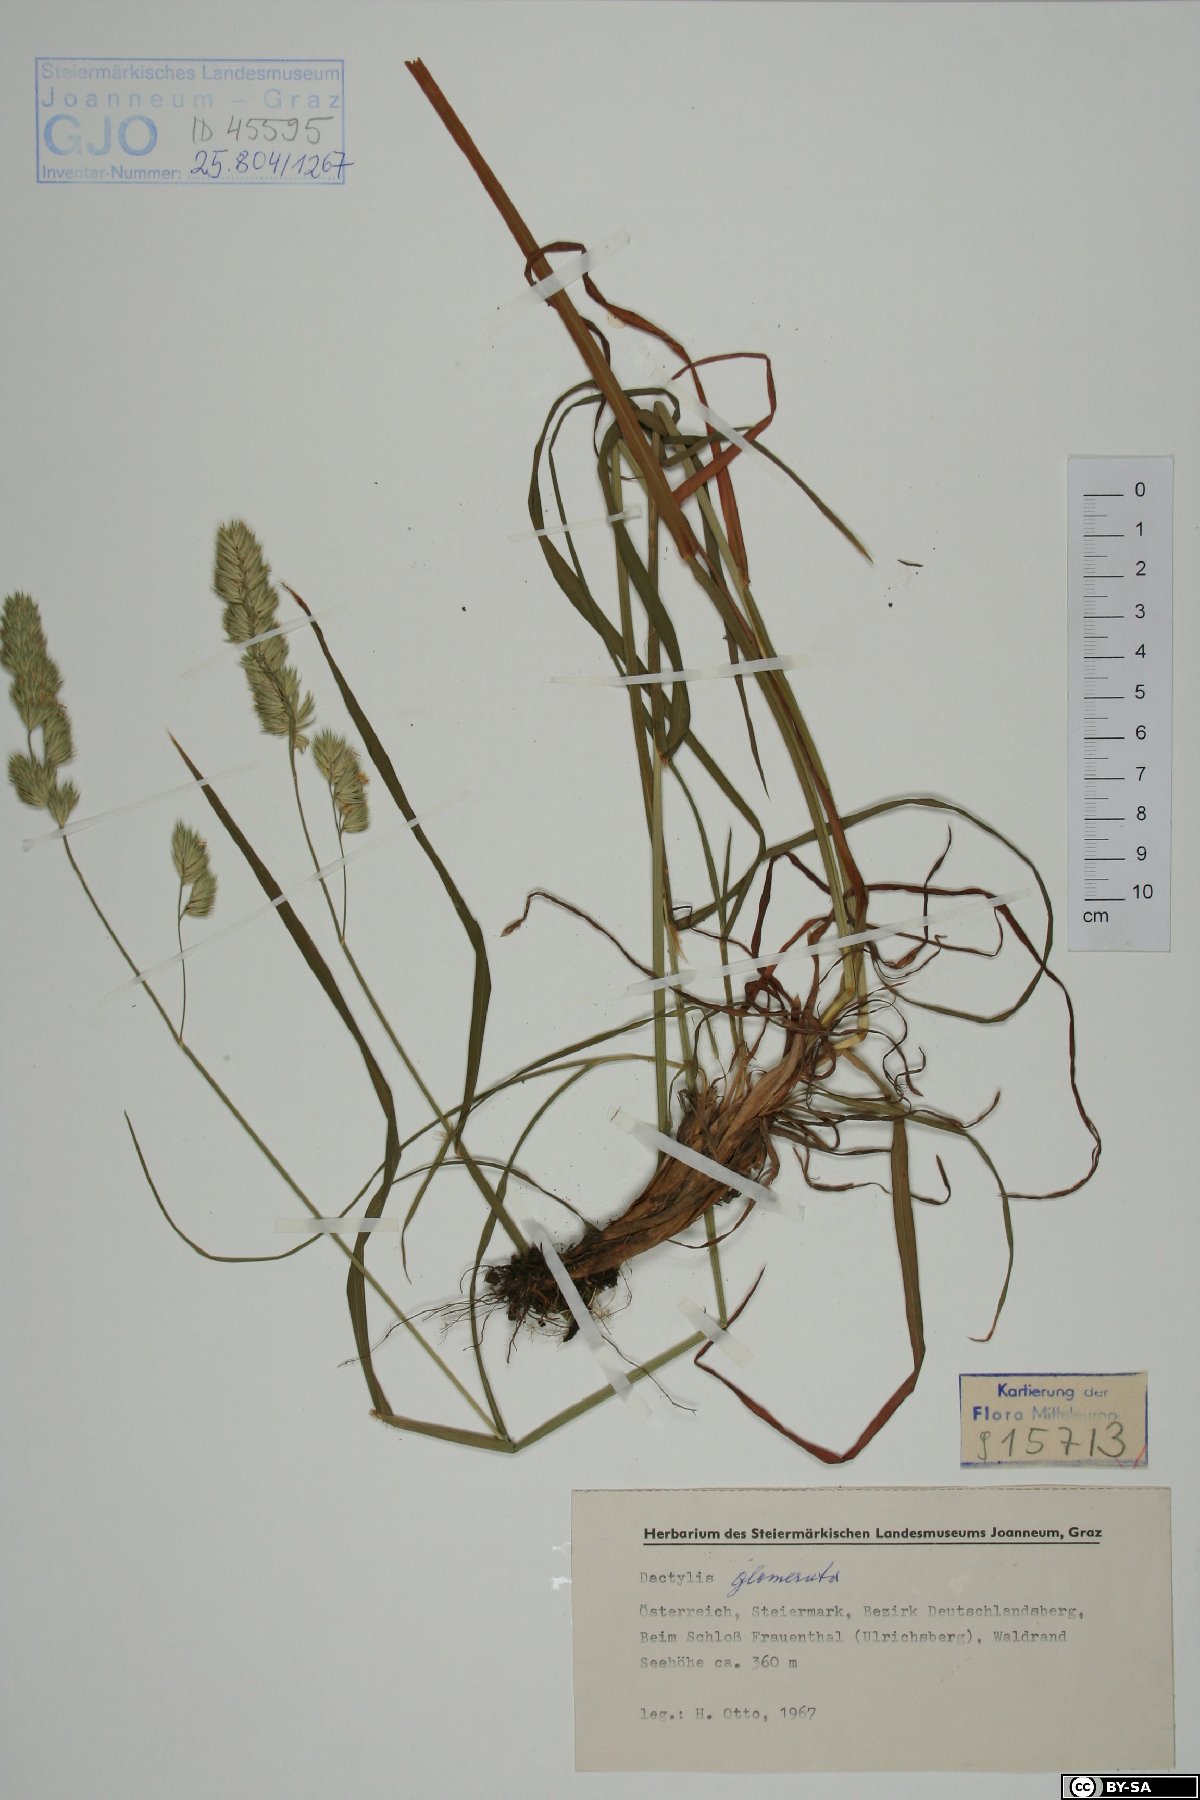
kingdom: Plantae
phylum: Tracheophyta
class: Liliopsida
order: Poales
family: Poaceae
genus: Dactylis
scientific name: Dactylis glomerata
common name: Orchardgrass
